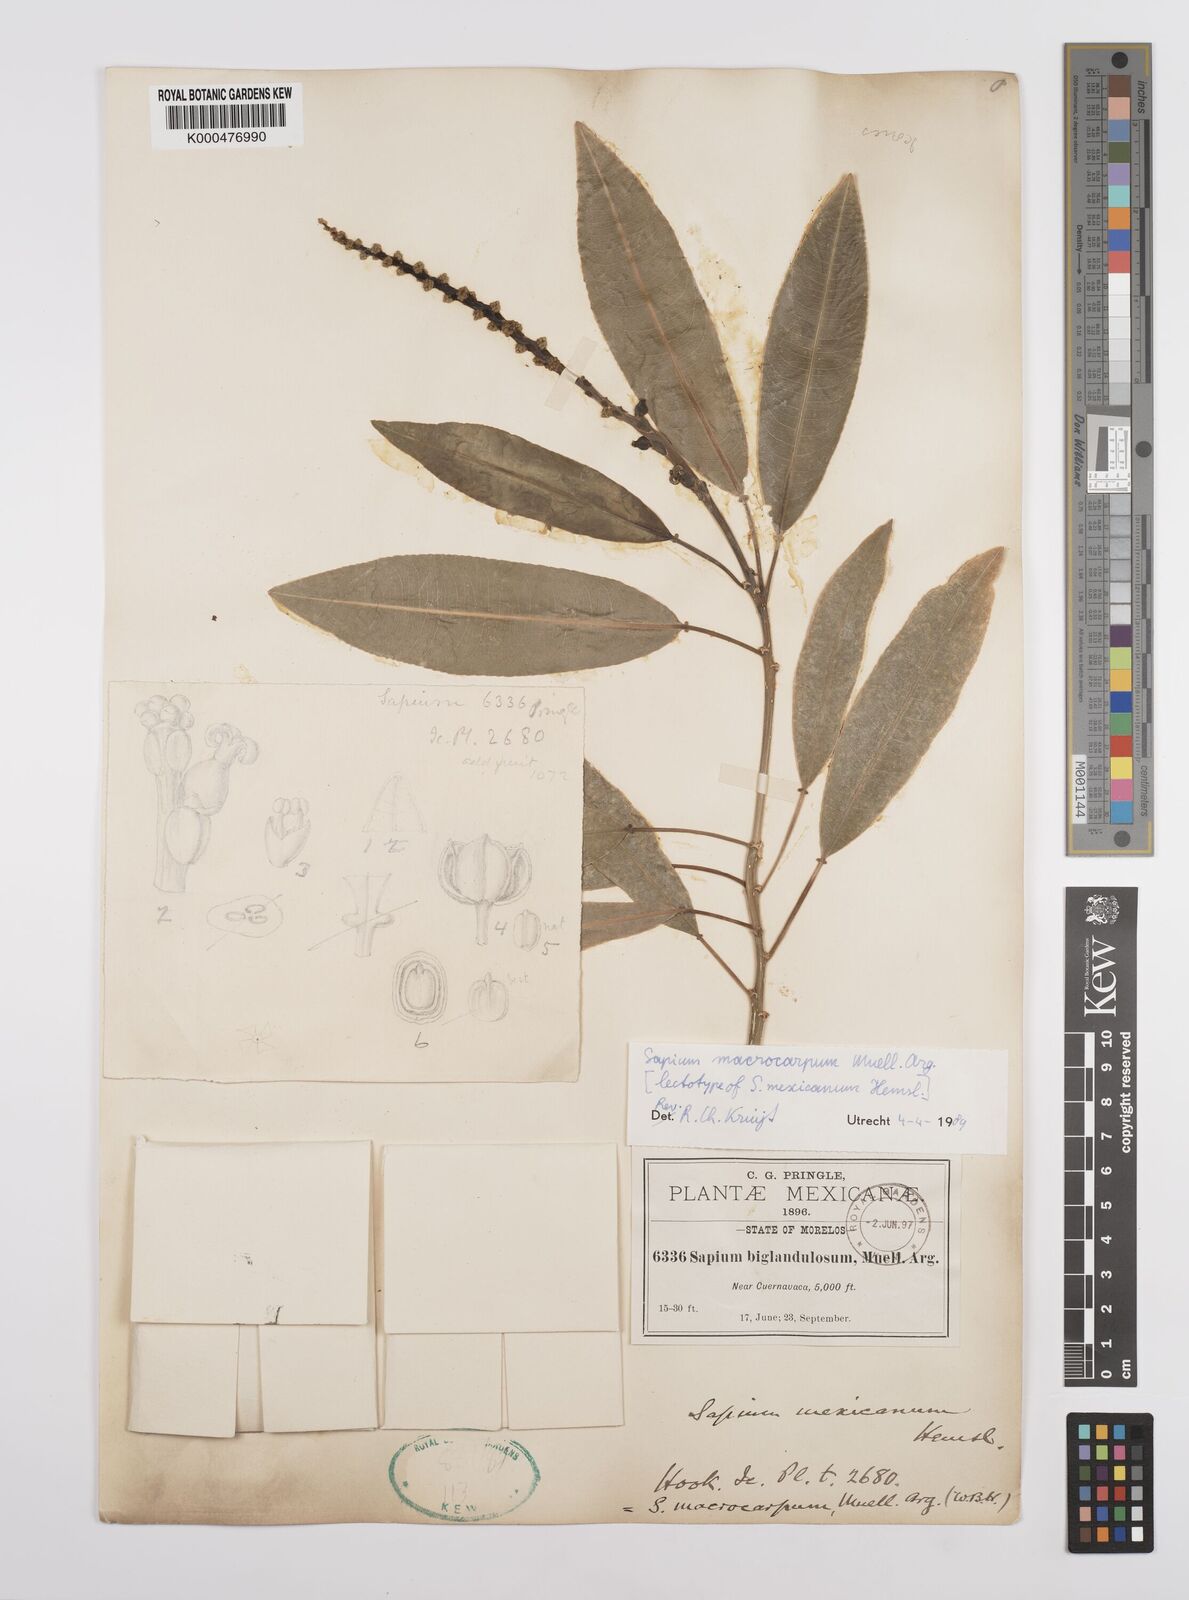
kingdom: Plantae
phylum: Tracheophyta
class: Magnoliopsida
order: Malpighiales
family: Euphorbiaceae
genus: Sapium
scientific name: Sapium
